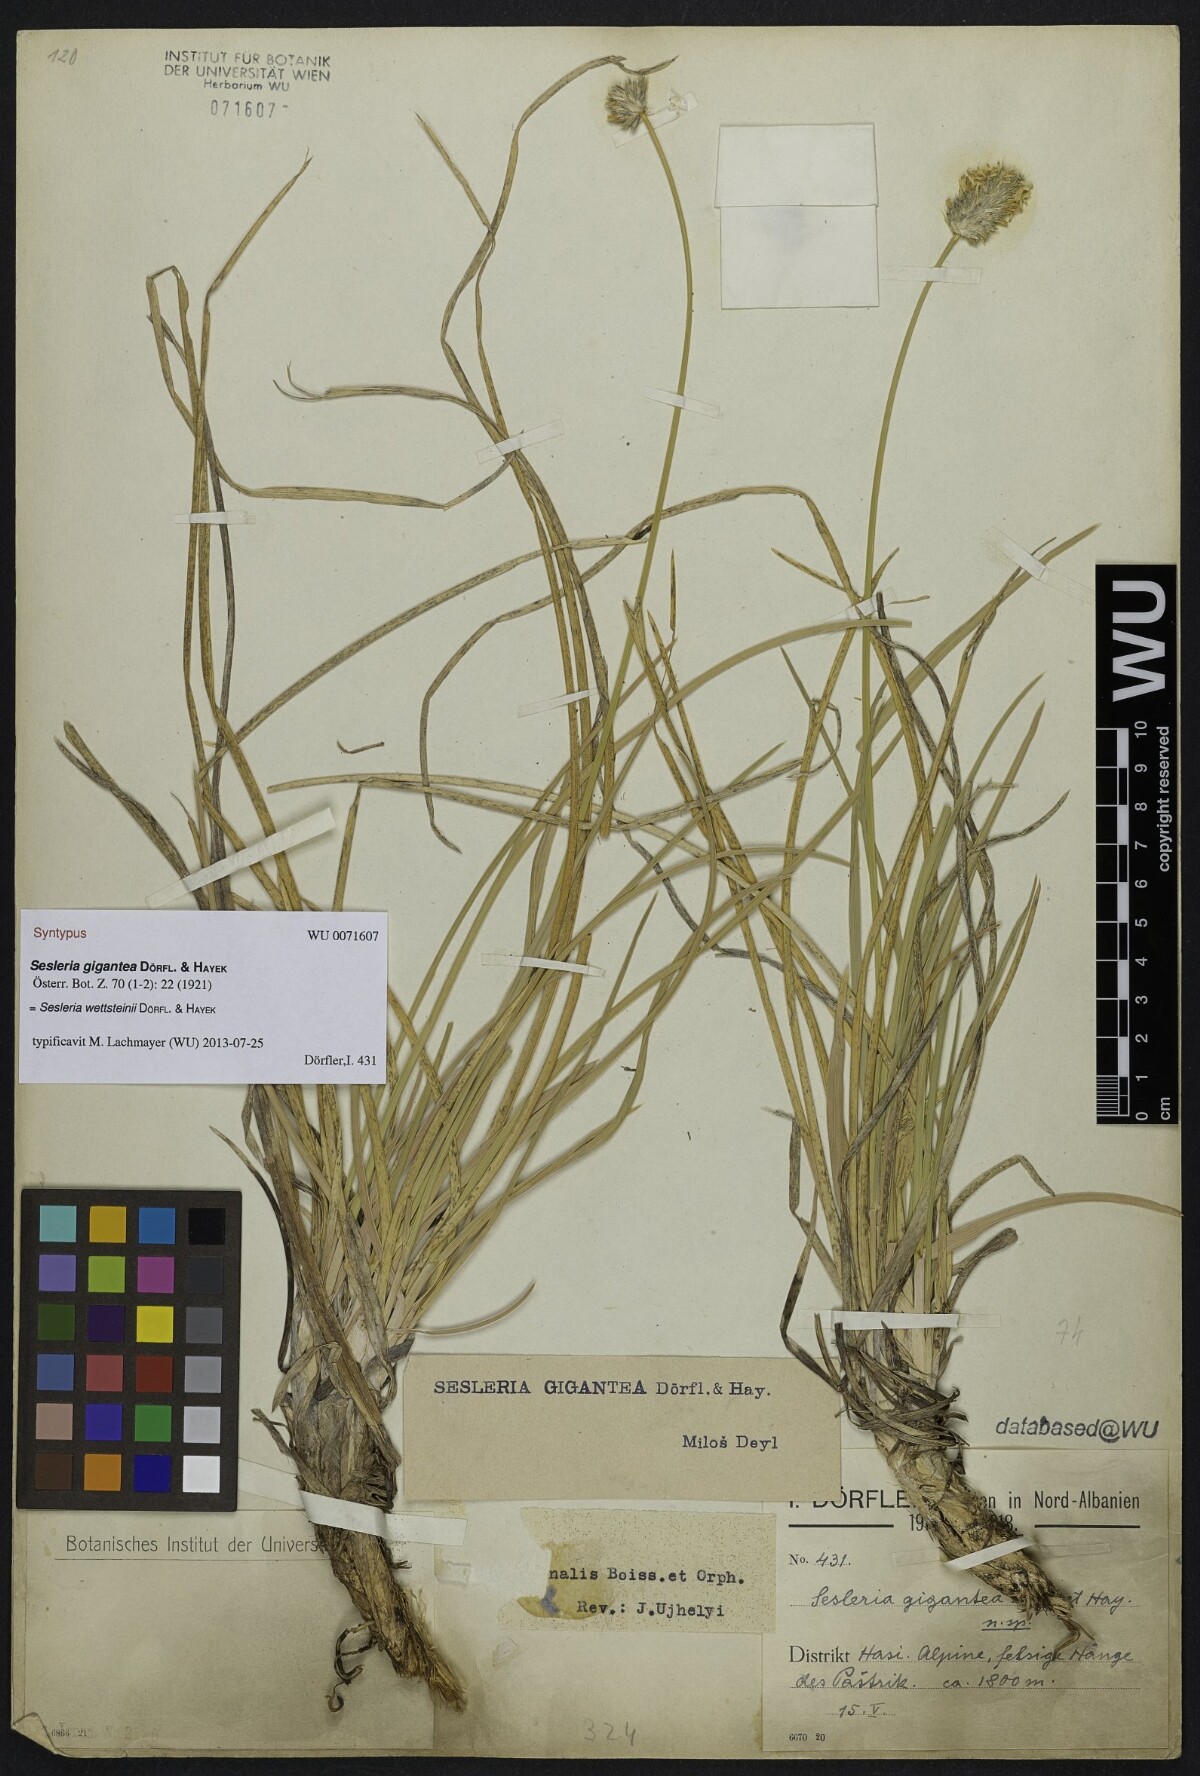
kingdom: Plantae
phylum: Tracheophyta
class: Liliopsida
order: Poales
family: Poaceae
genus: Sesleria
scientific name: Sesleria wettsteinii
